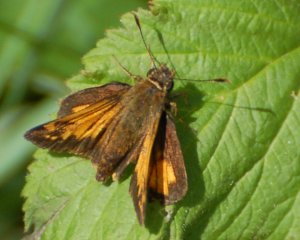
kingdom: Animalia
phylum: Arthropoda
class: Insecta
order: Lepidoptera
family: Hesperiidae
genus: Lon
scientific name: Lon hobomok
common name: Hobomok Skipper
